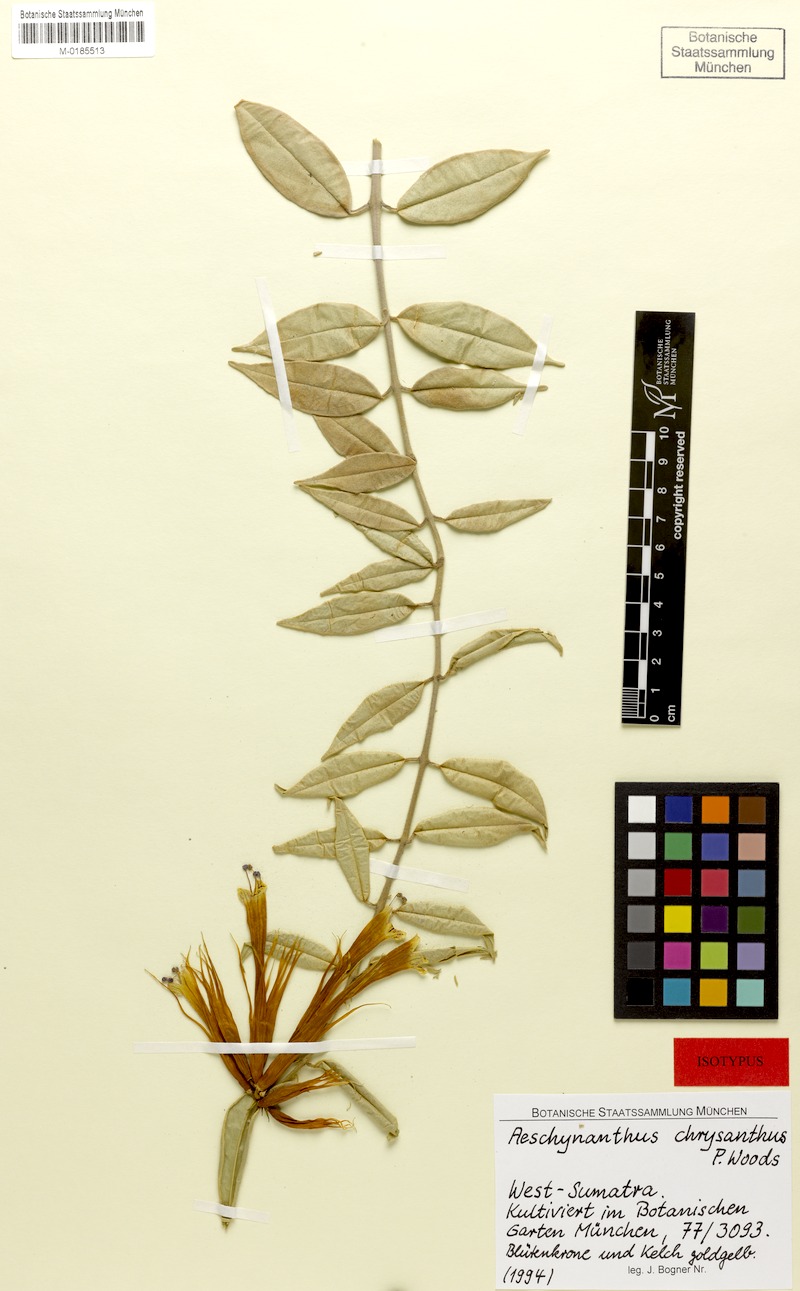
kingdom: Plantae
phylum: Tracheophyta
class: Magnoliopsida
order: Lamiales
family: Gesneriaceae
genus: Aeschynanthus
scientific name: Aeschynanthus chrysanthus
